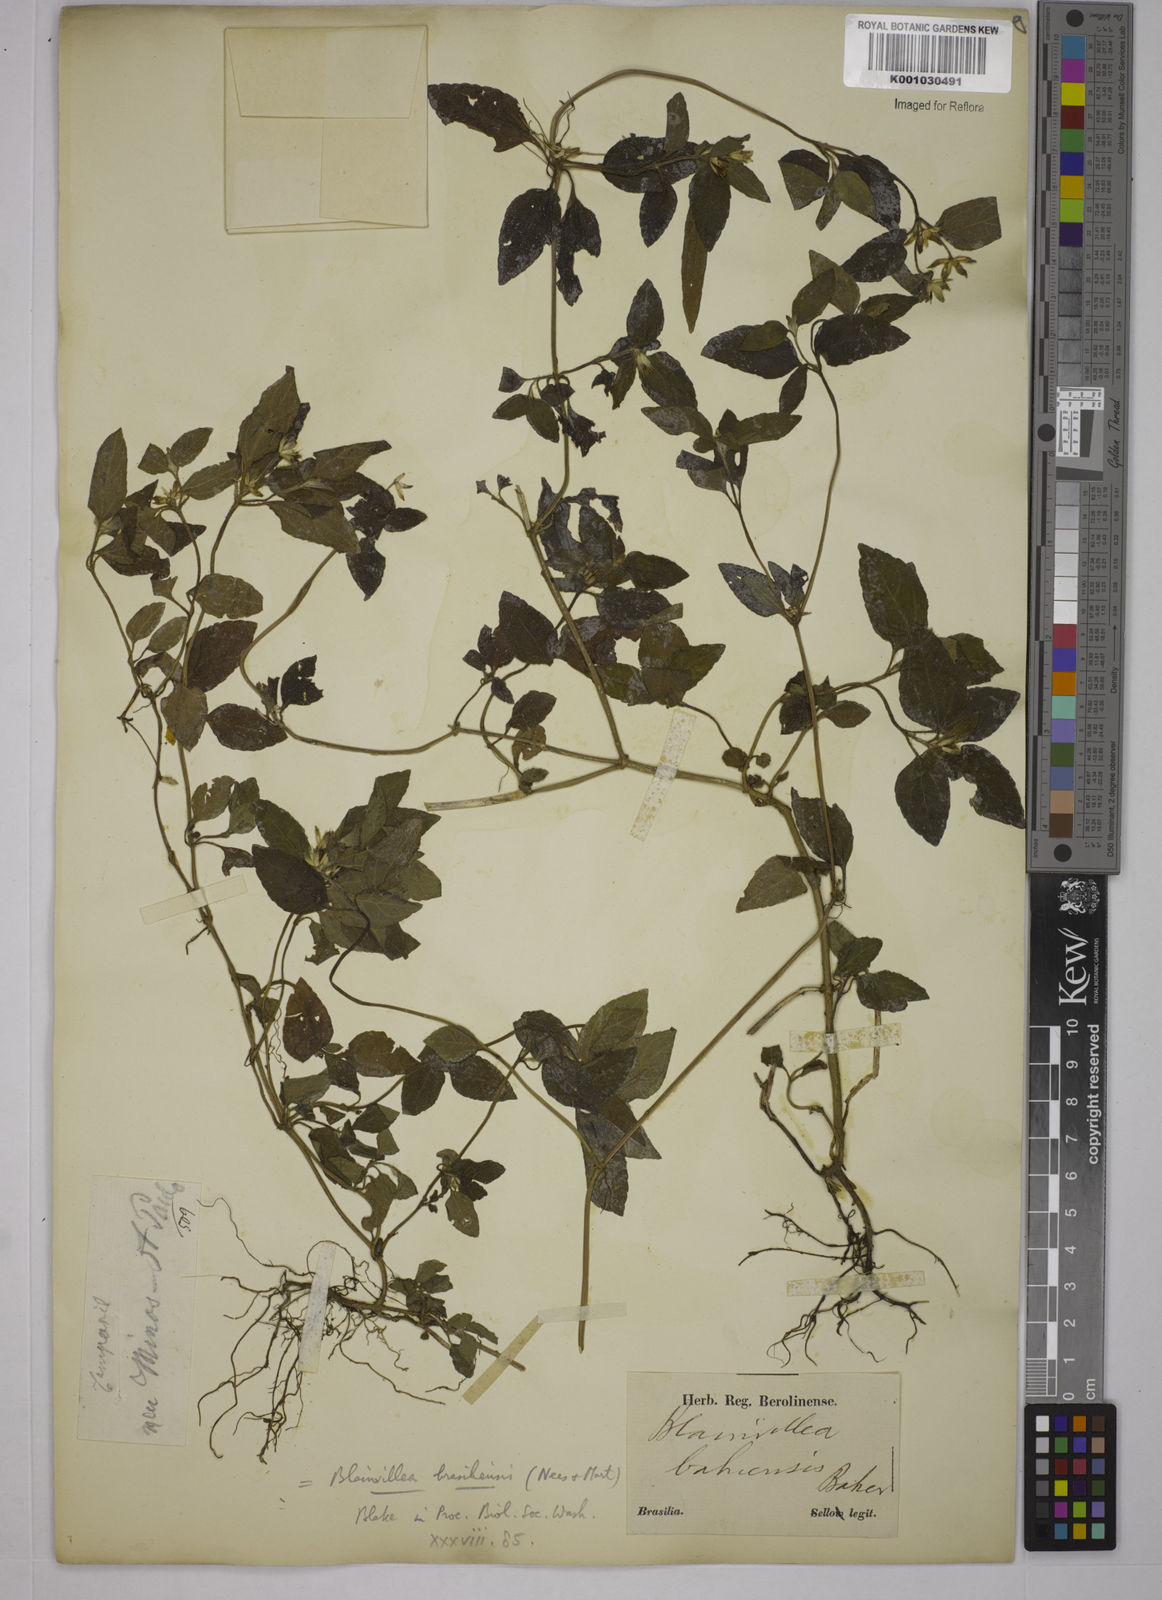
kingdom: Plantae
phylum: Tracheophyta
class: Magnoliopsida
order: Asterales
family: Asteraceae
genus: Blainvillea
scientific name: Blainvillea
